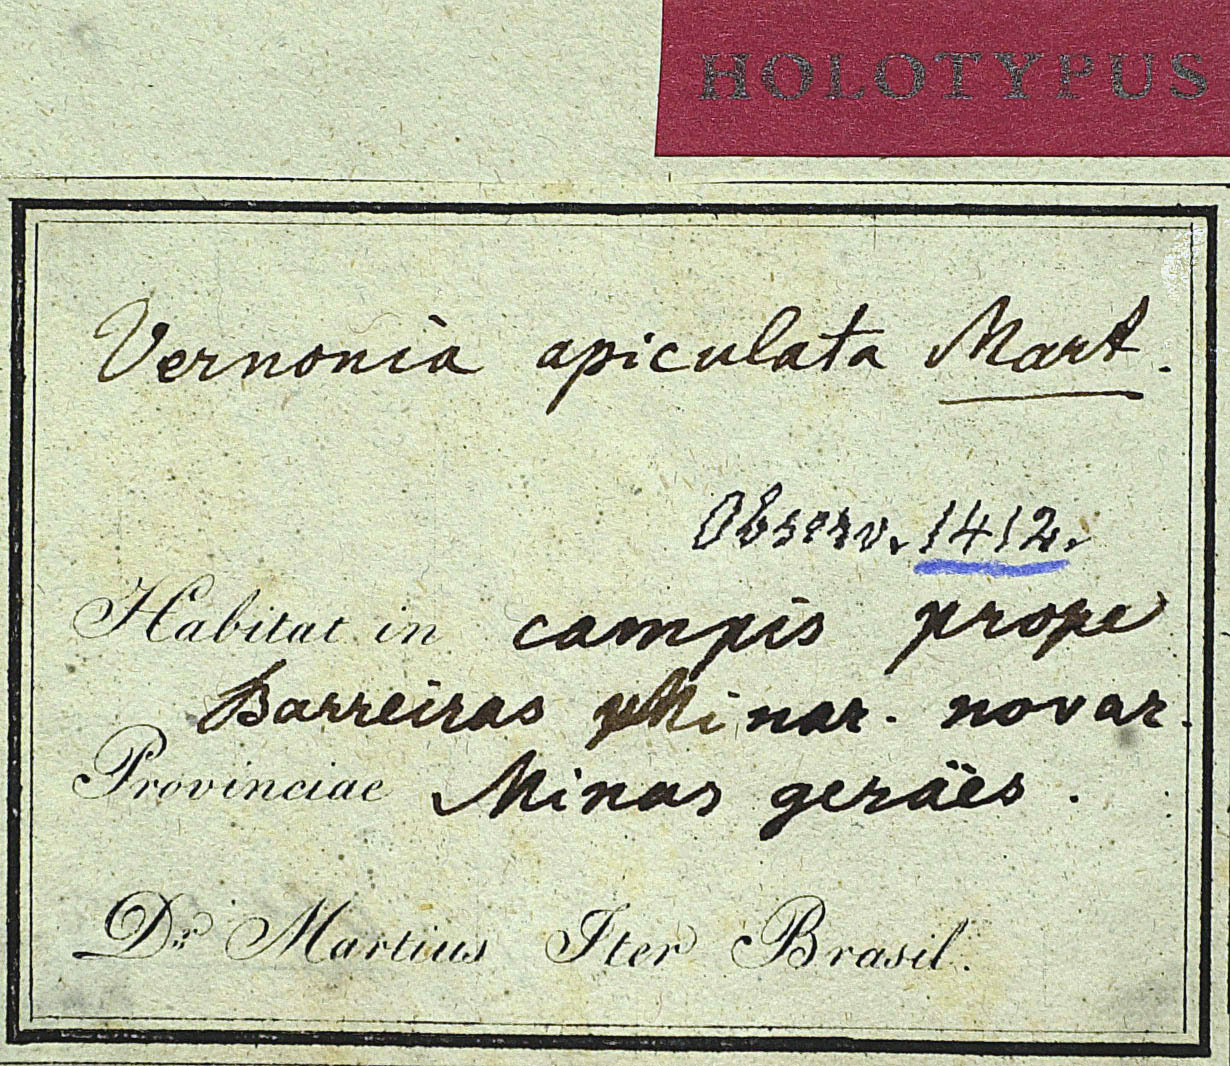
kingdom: Plantae
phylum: Tracheophyta
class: Magnoliopsida
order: Asterales
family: Asteraceae
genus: Stenocephalum
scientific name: Stenocephalum apiculatum
